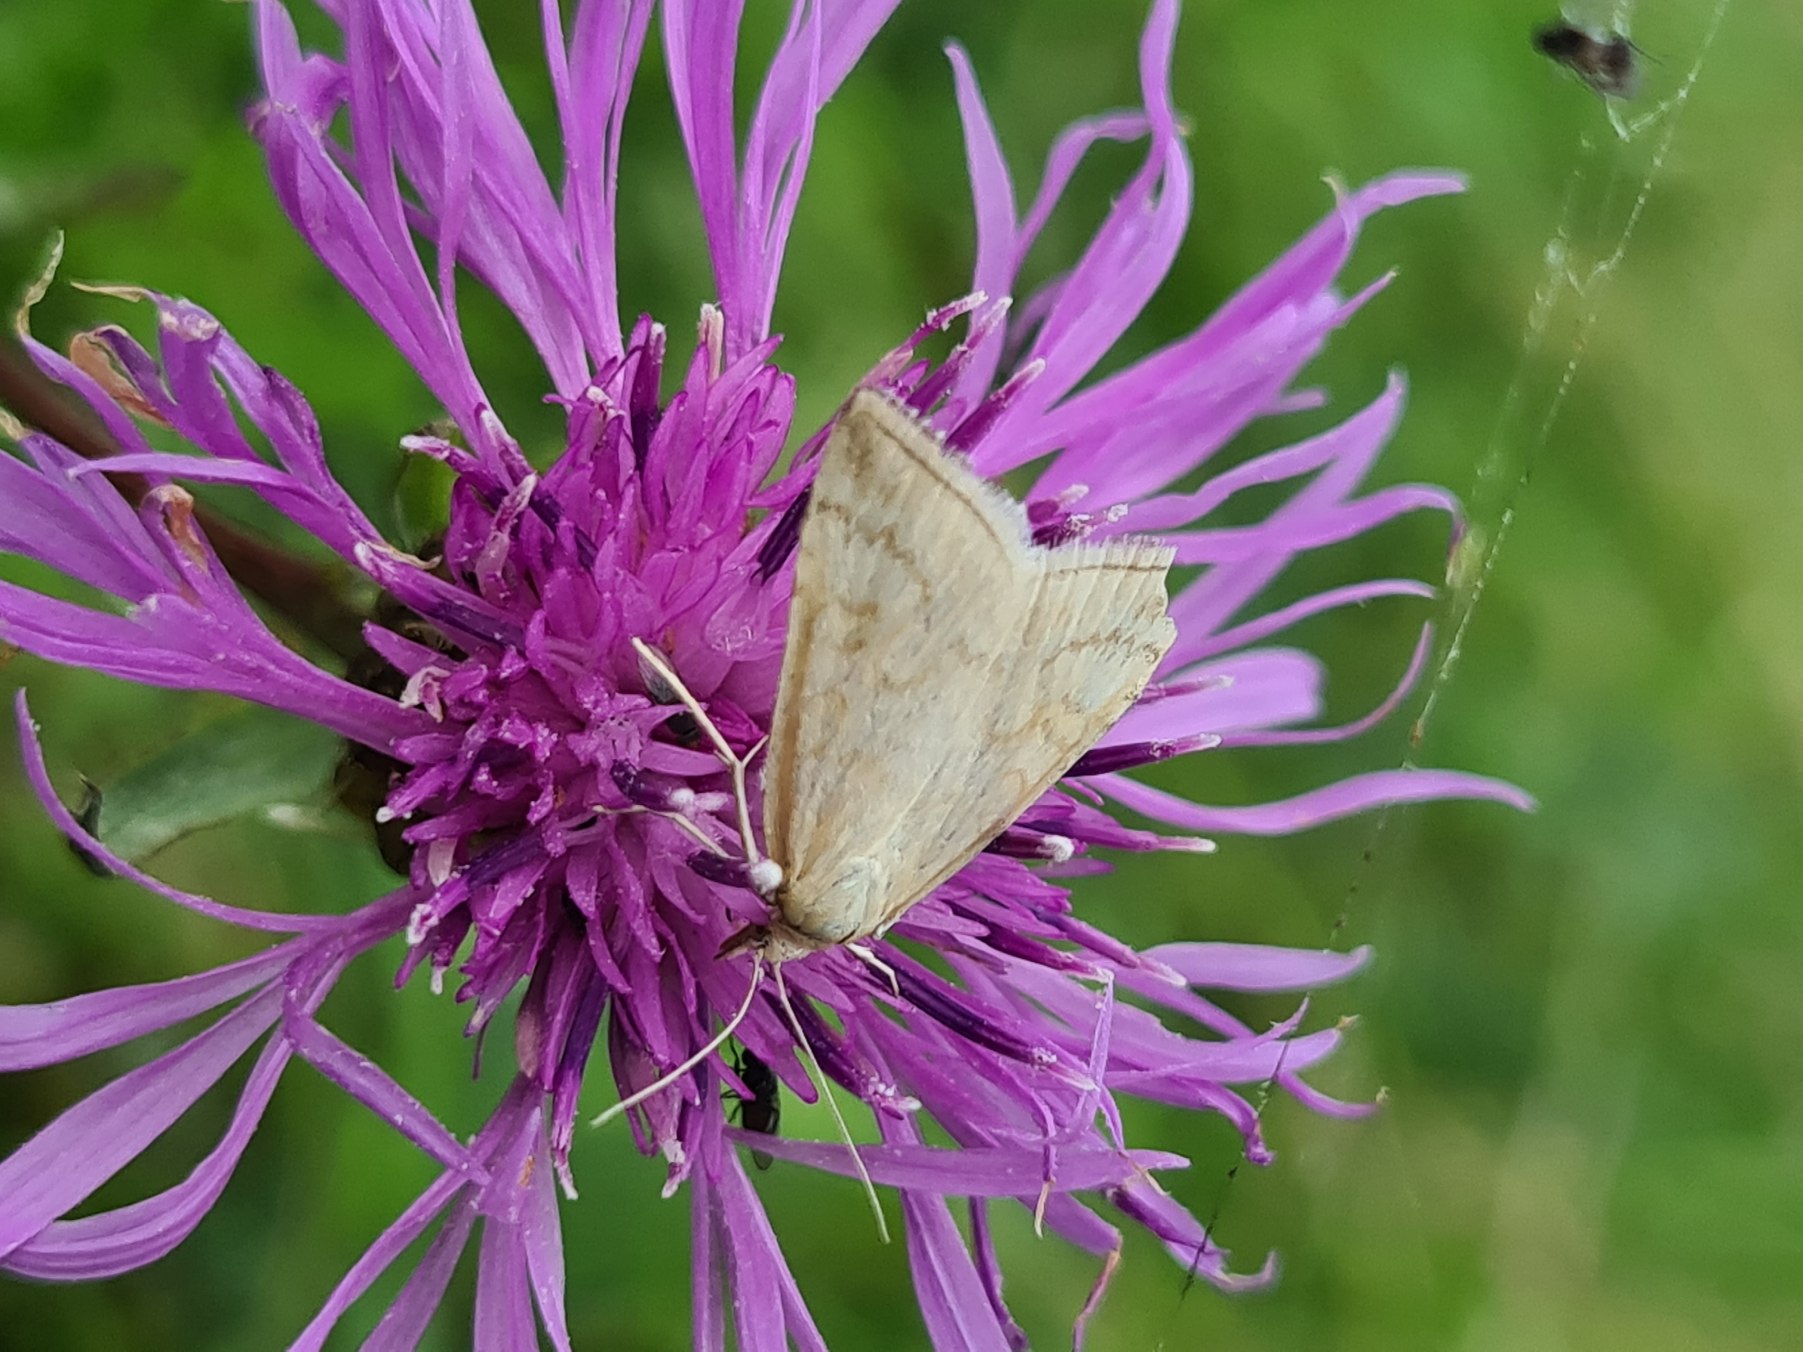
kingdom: Animalia
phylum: Arthropoda
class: Insecta
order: Lepidoptera
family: Crambidae
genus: Udea
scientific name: Udea lutealis
